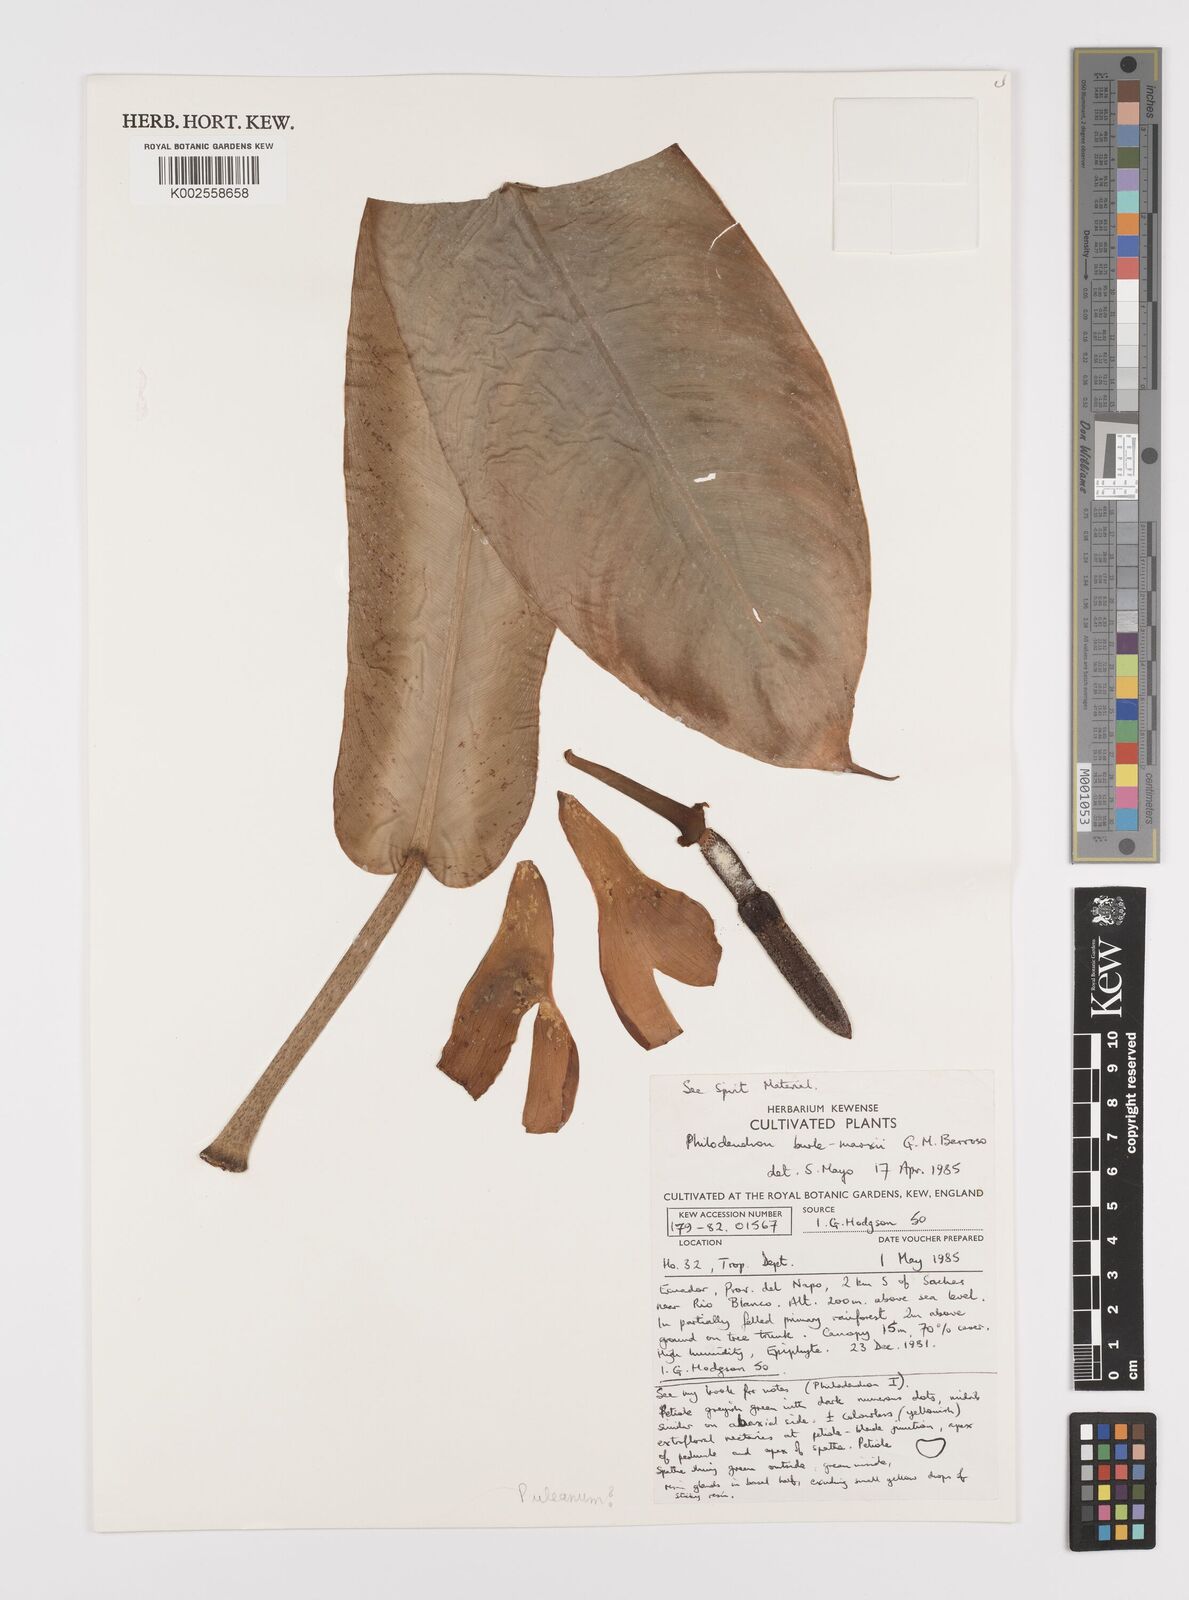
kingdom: Plantae
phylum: Tracheophyta
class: Liliopsida
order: Alismatales
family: Araceae
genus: Philodendron
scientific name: Philodendron burle-marxii
